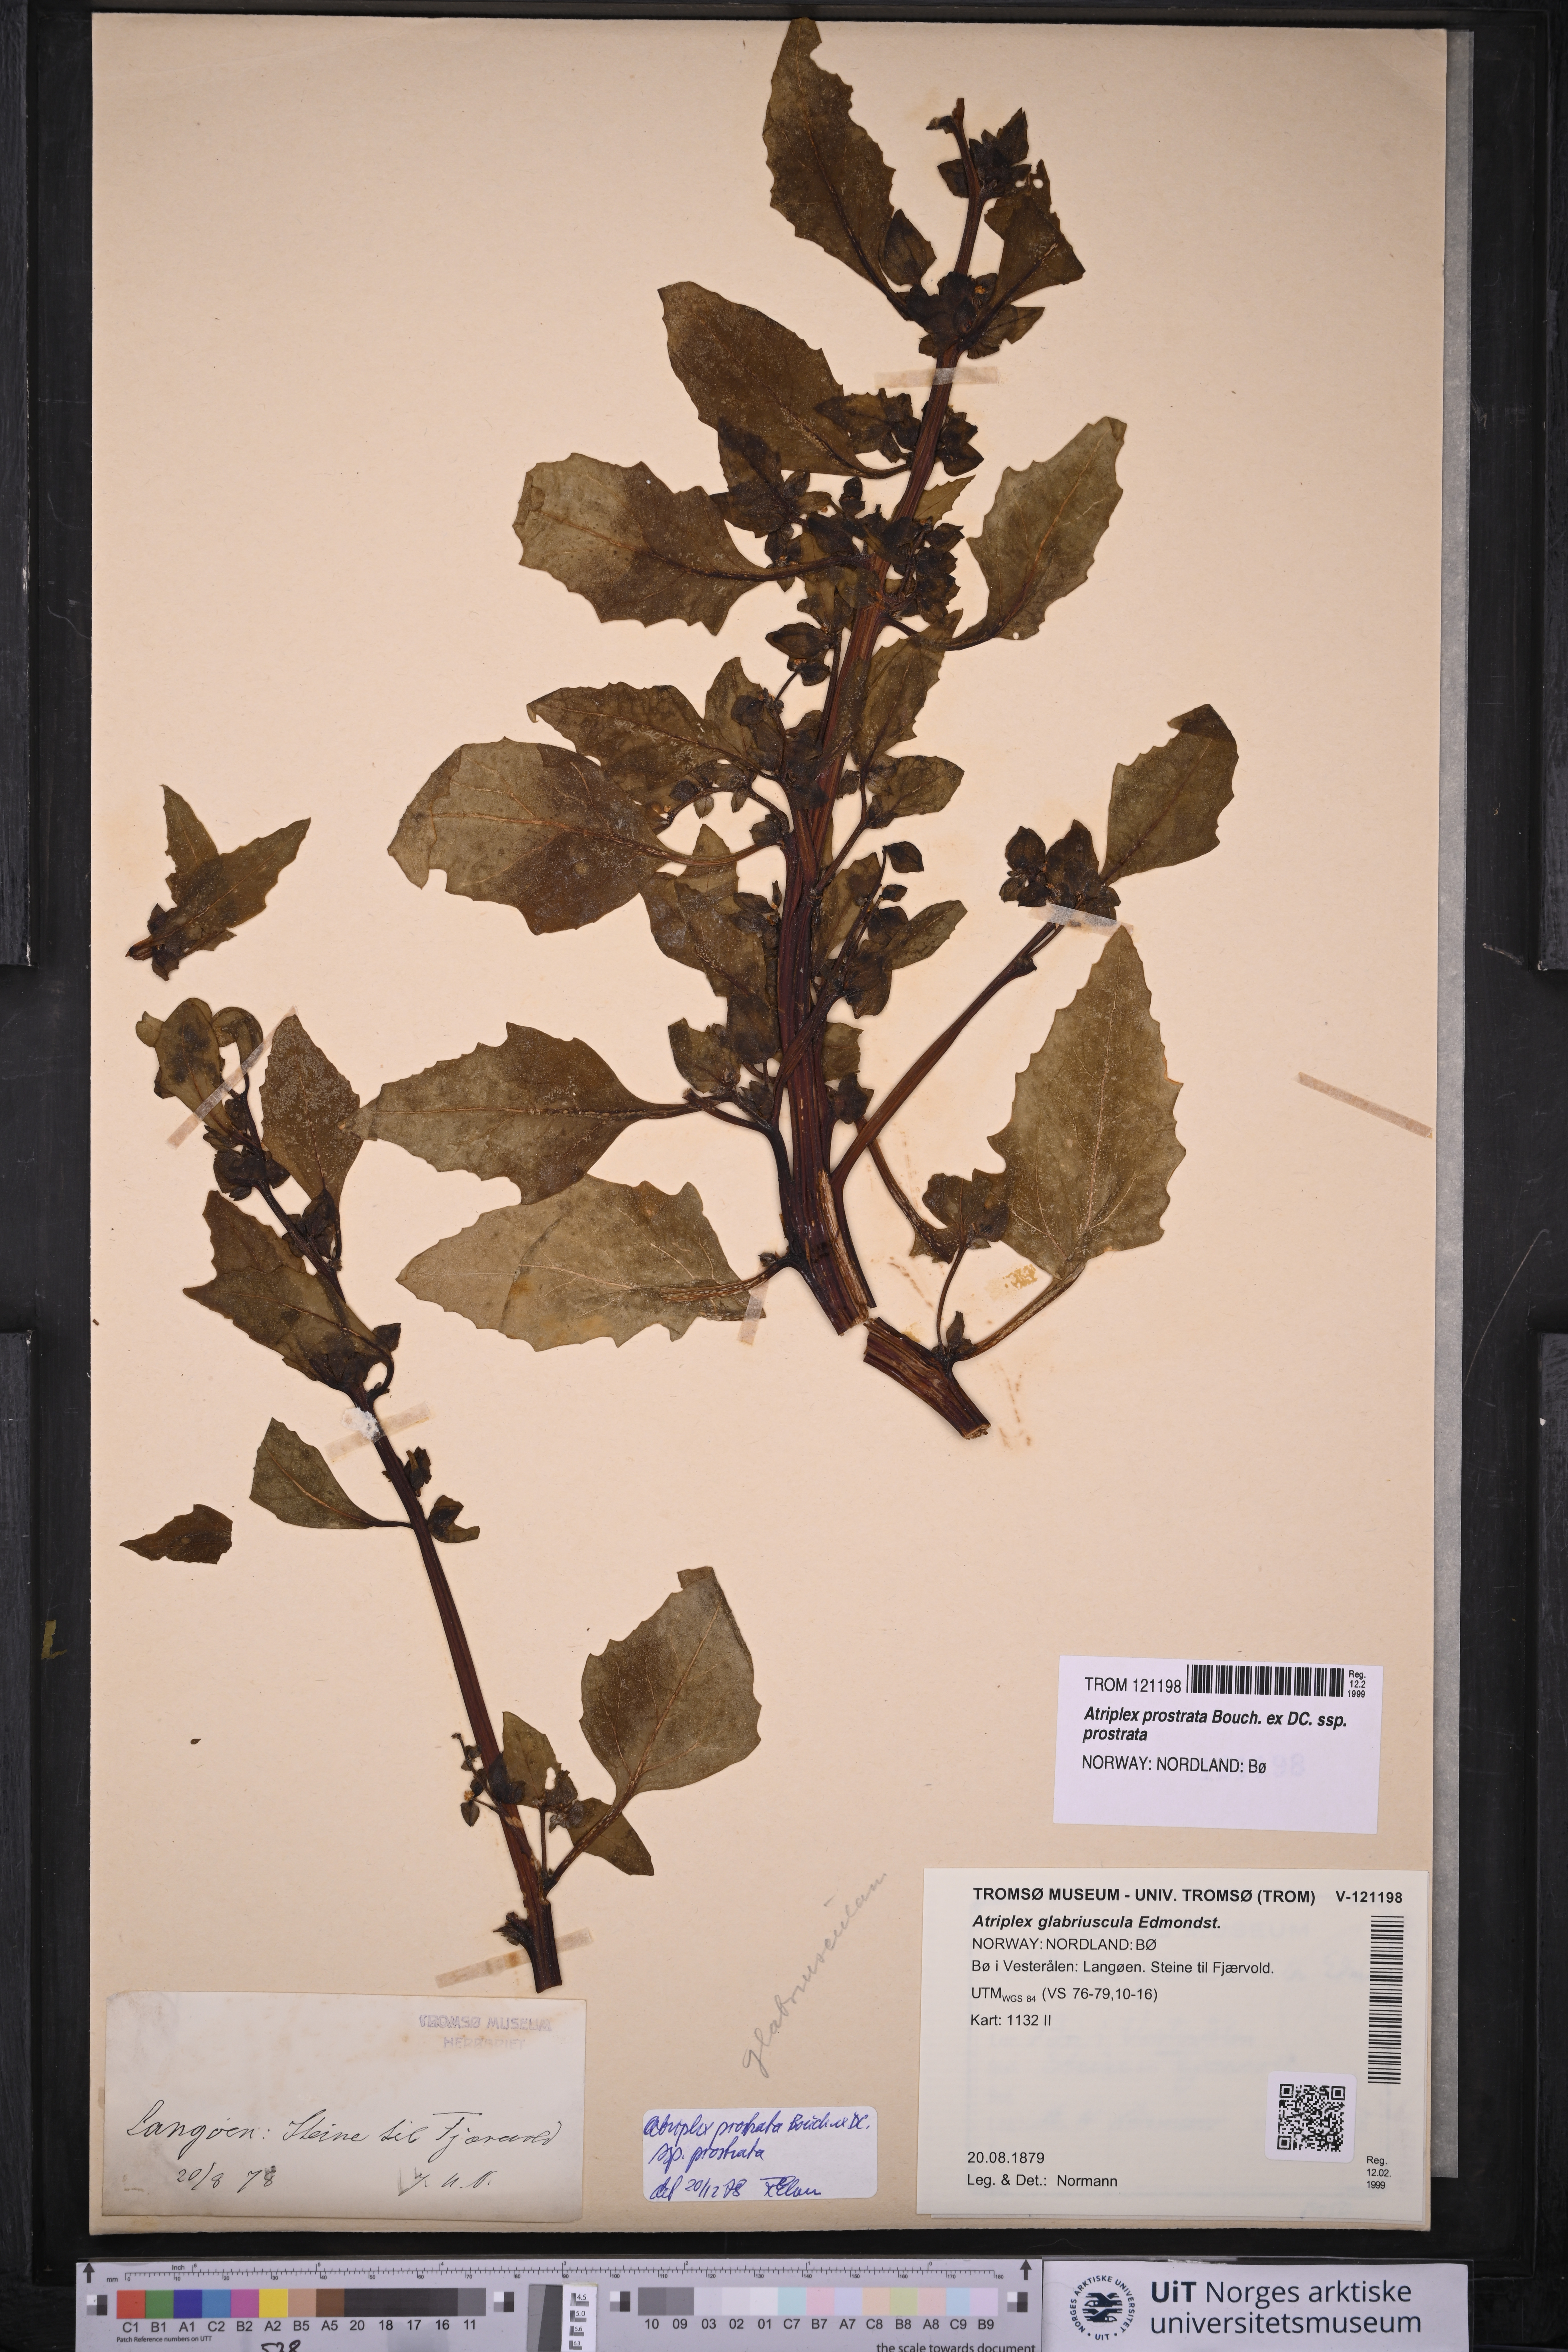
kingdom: Plantae
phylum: Tracheophyta
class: Magnoliopsida
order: Caryophyllales
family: Amaranthaceae
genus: Atriplex
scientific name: Atriplex prostrata
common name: Spear-leaved orache
